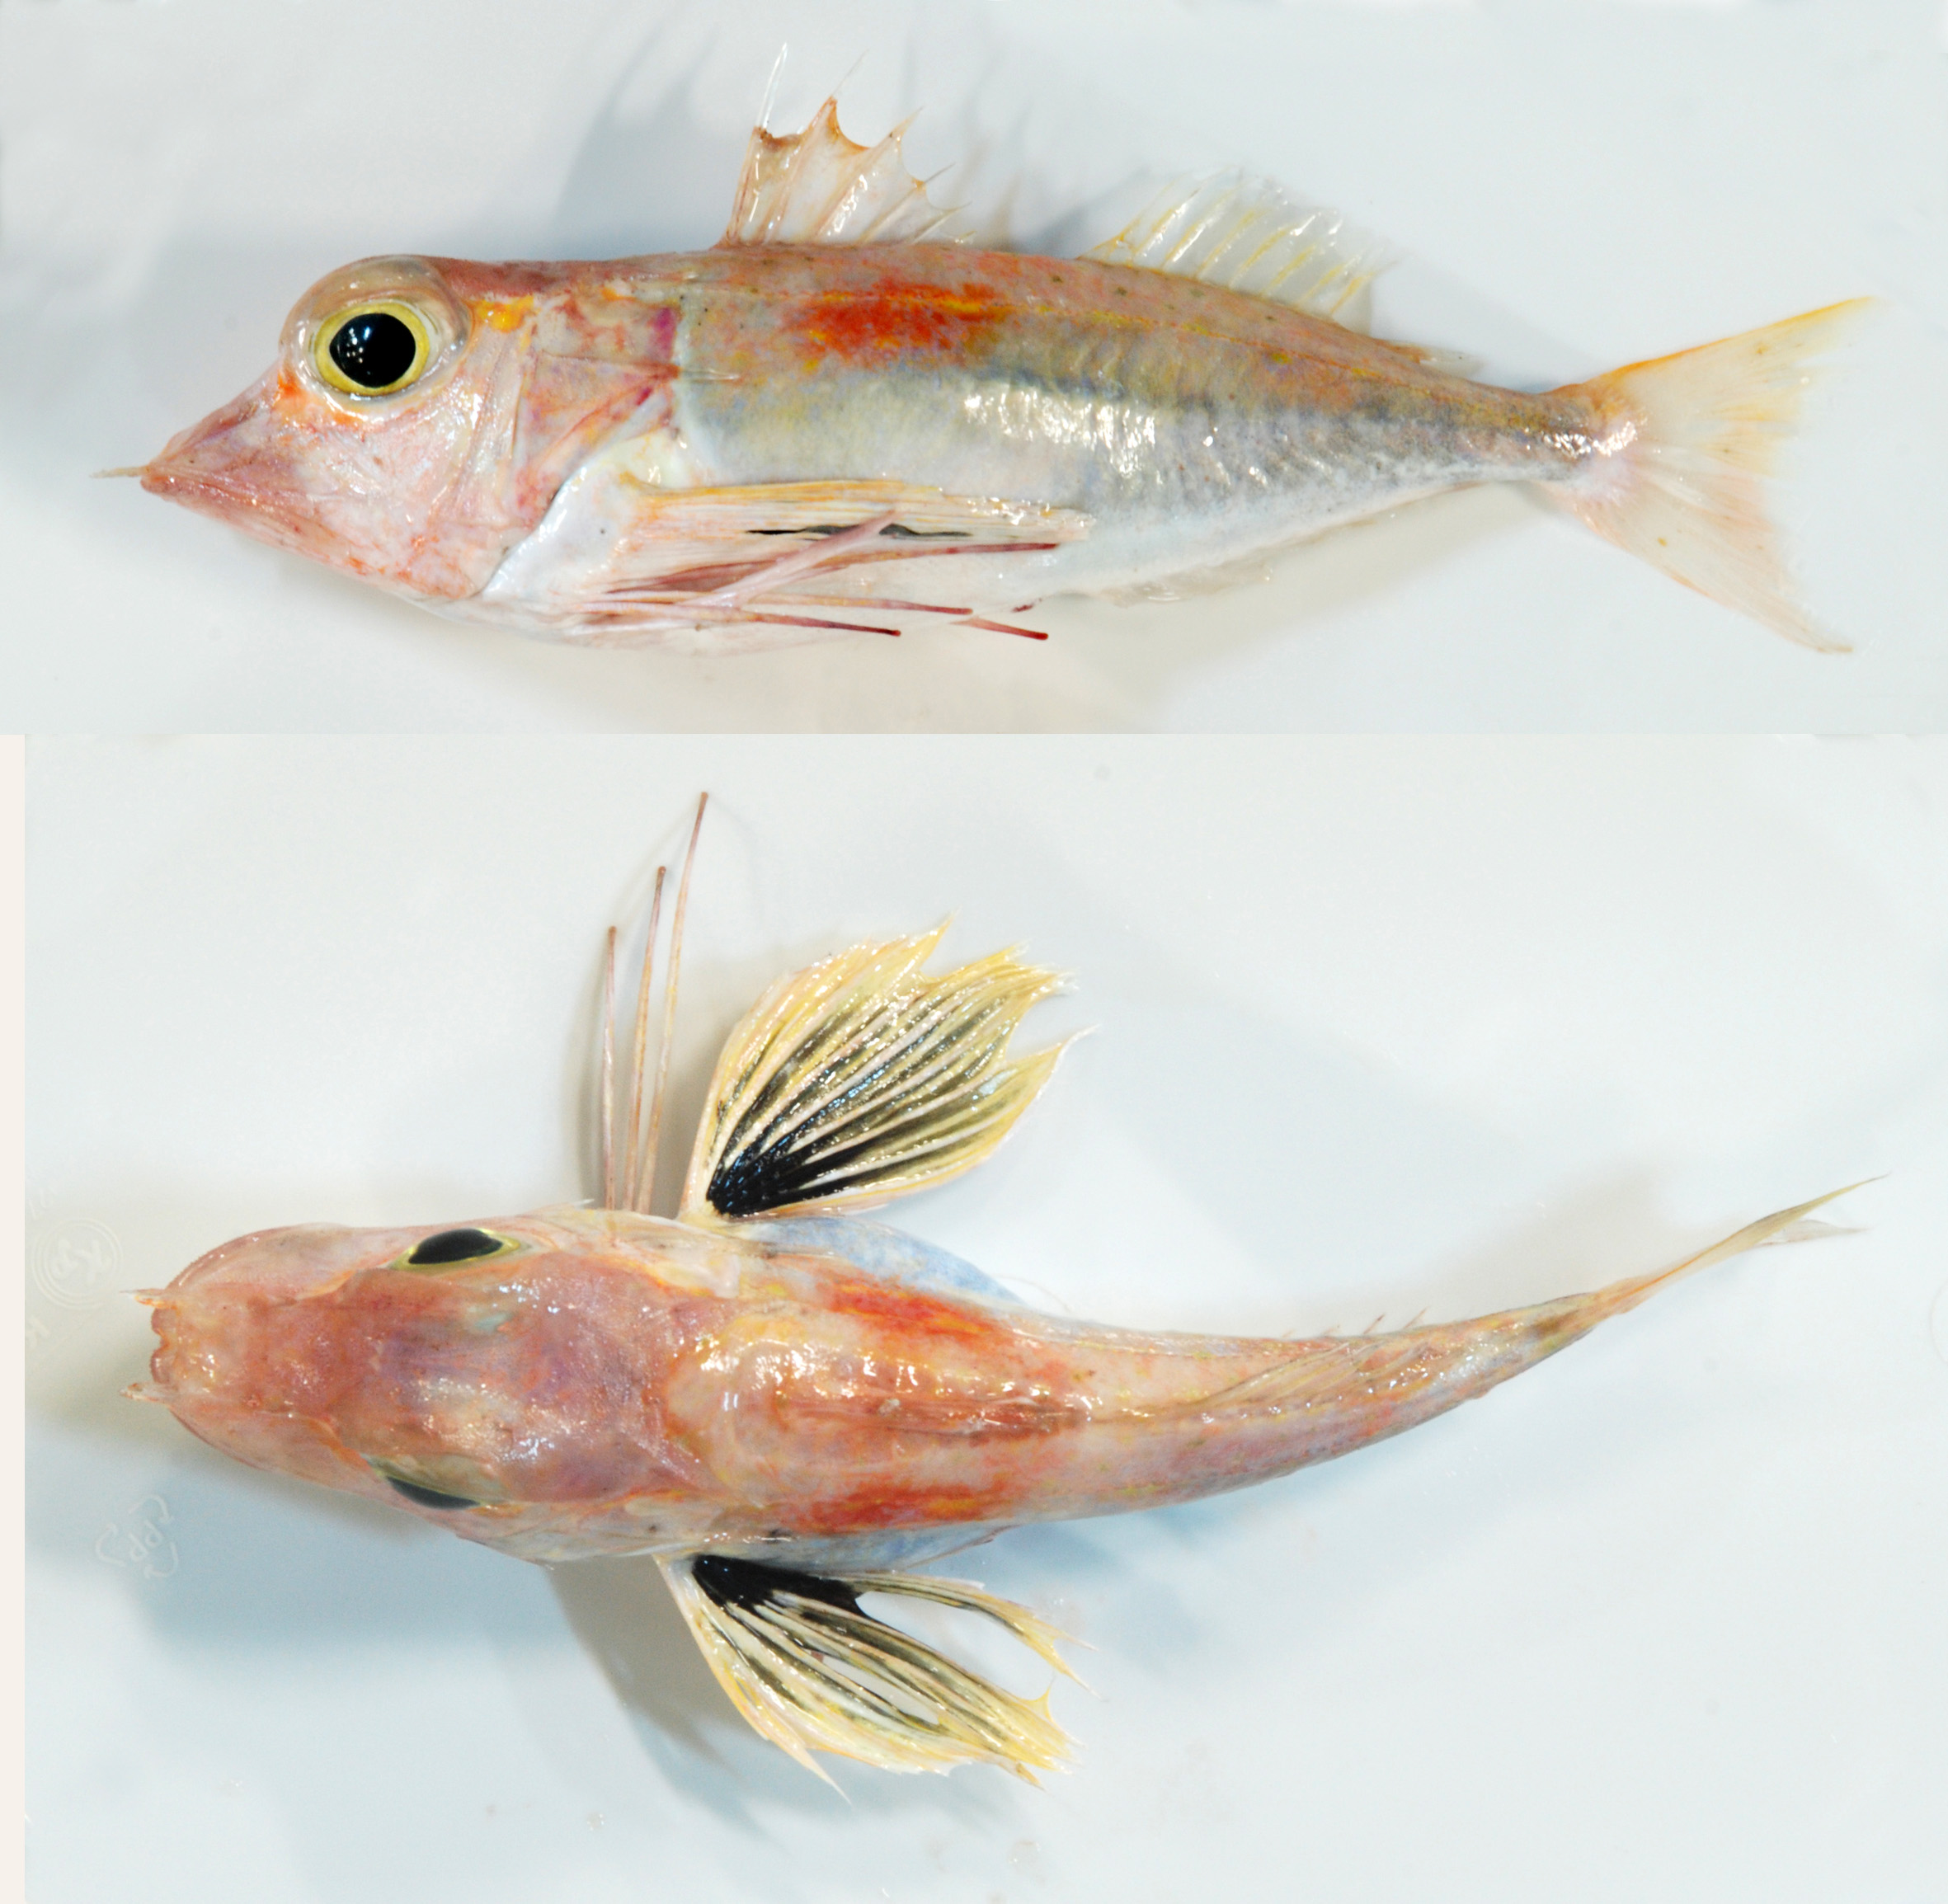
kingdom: Animalia
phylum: Chordata
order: Scorpaeniformes
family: Triglidae
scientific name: Triglidae
